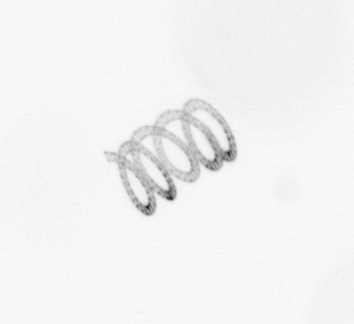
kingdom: Chromista
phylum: Ochrophyta
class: Bacillariophyceae
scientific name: Bacillariophyceae
